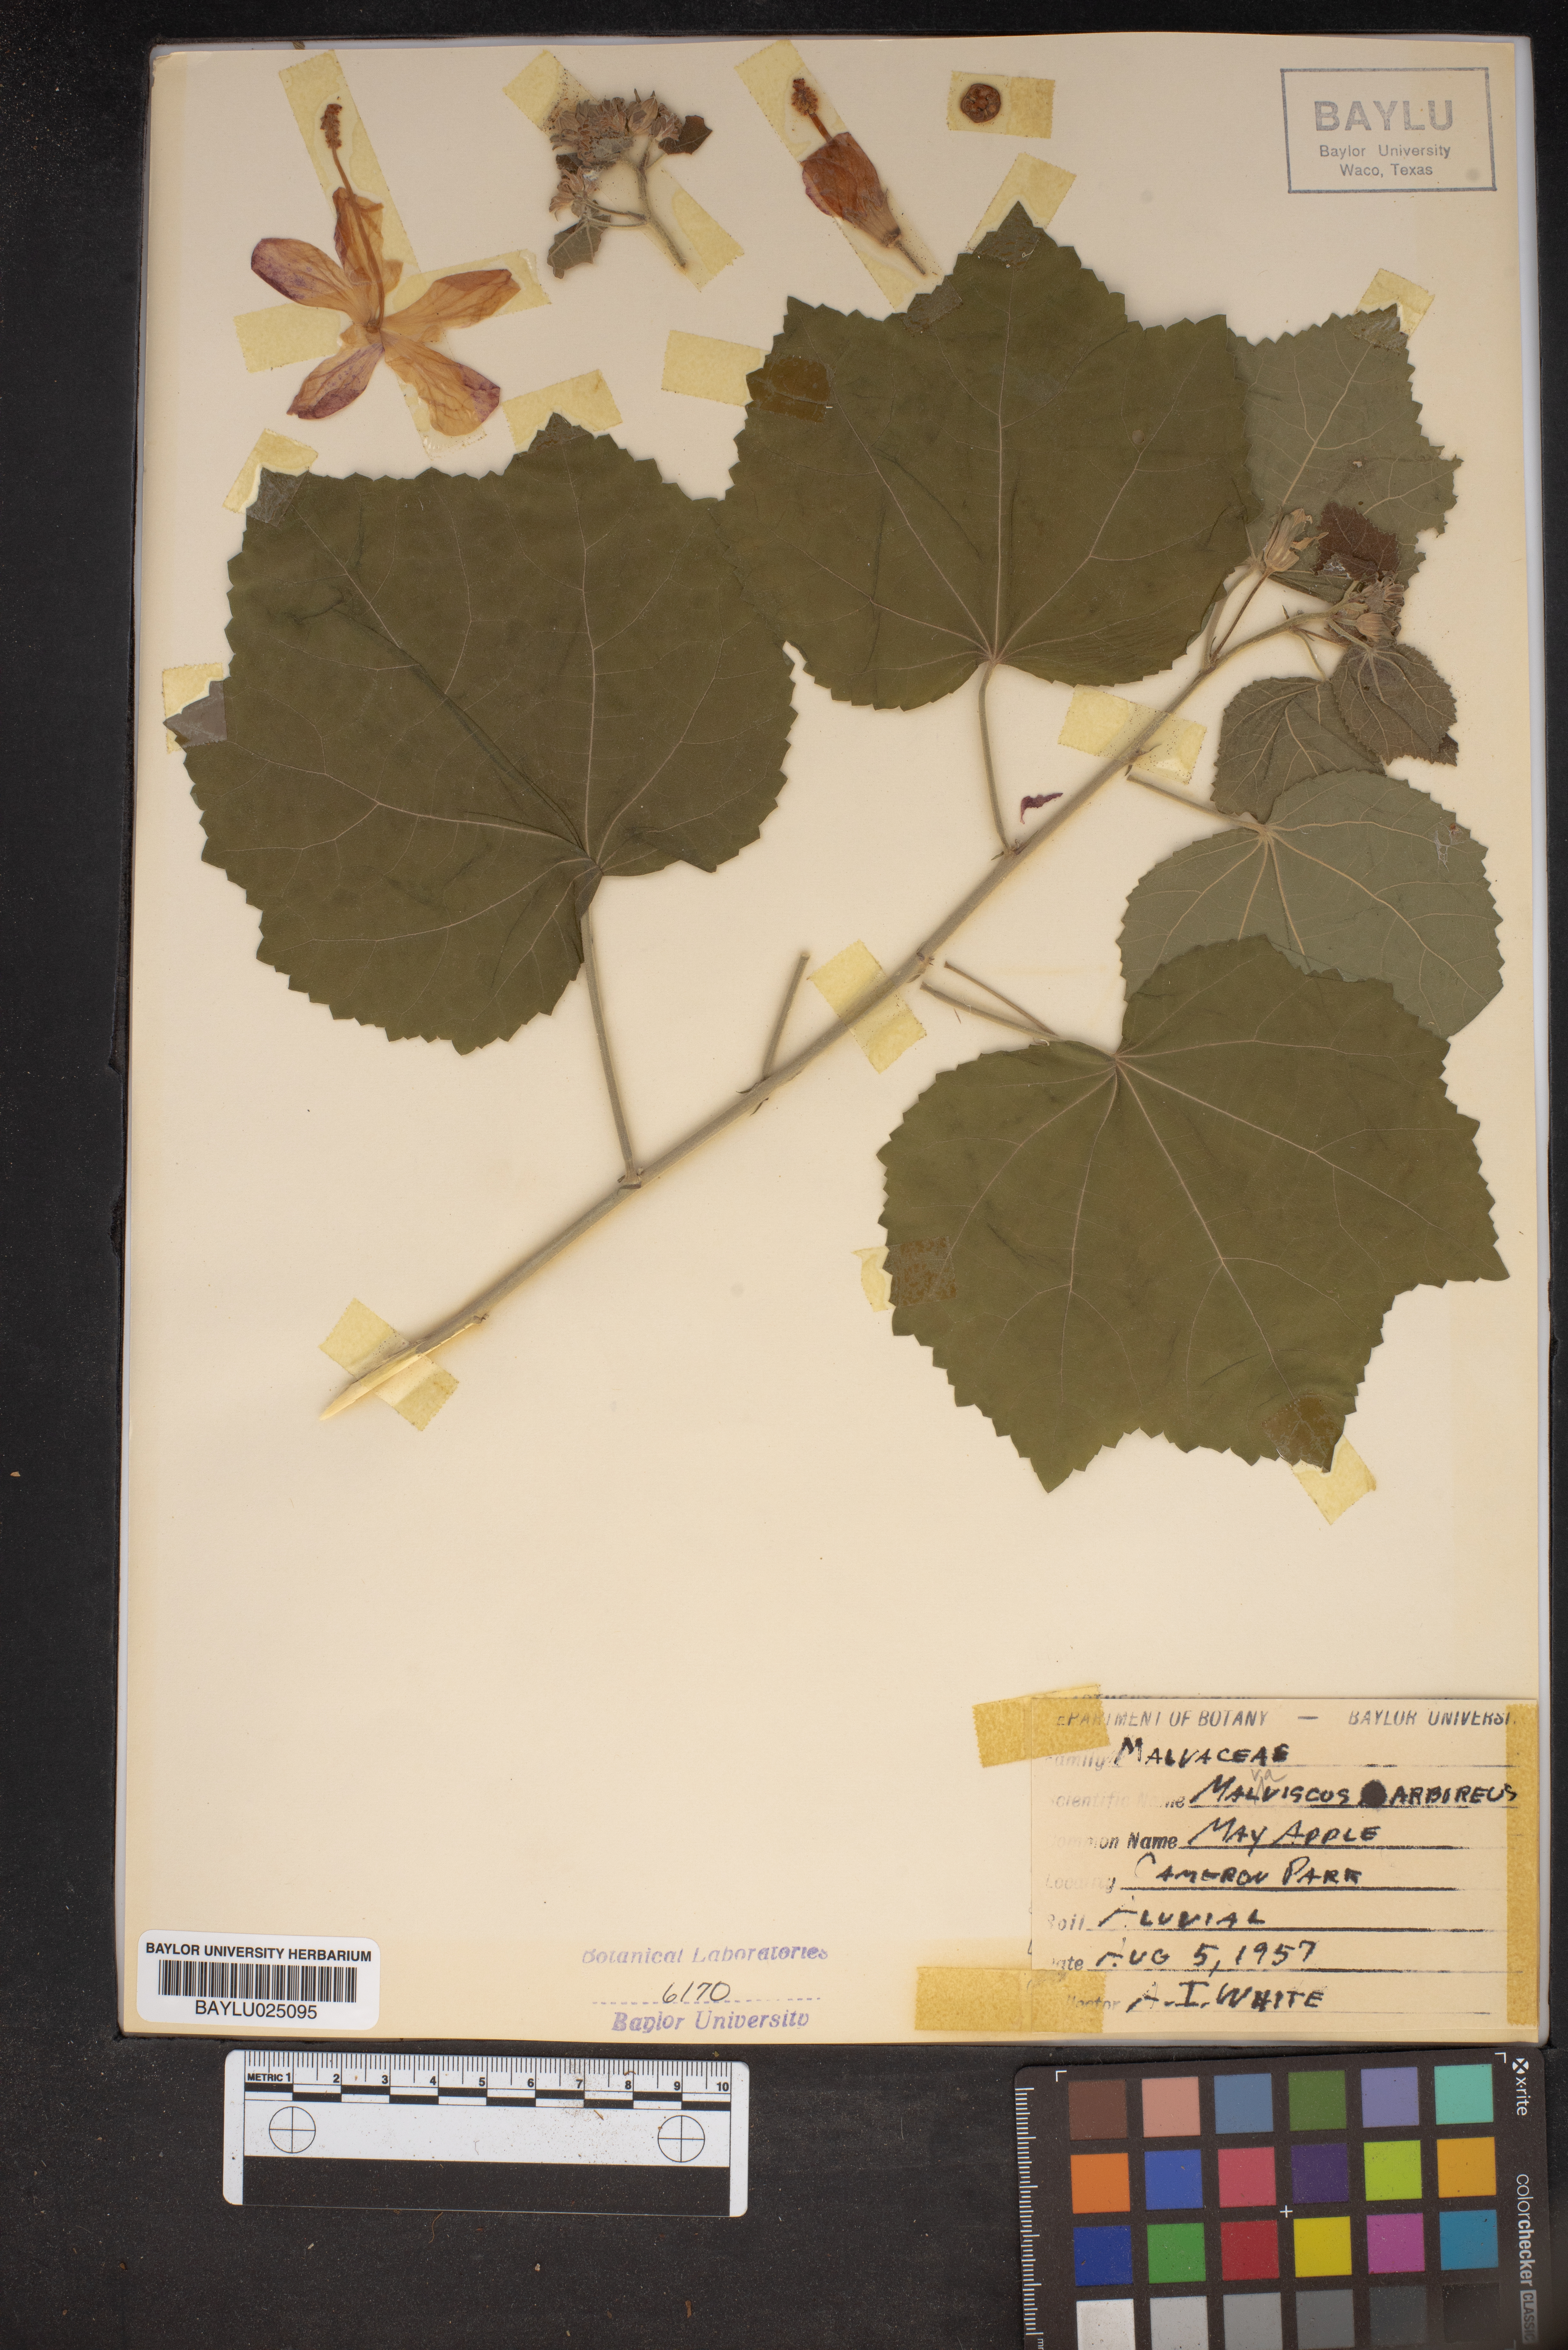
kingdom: Plantae
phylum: Tracheophyta
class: Magnoliopsida
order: Malvales
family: Malvaceae
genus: Malvaviscus
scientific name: Malvaviscus arboreus
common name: Wax mallow
